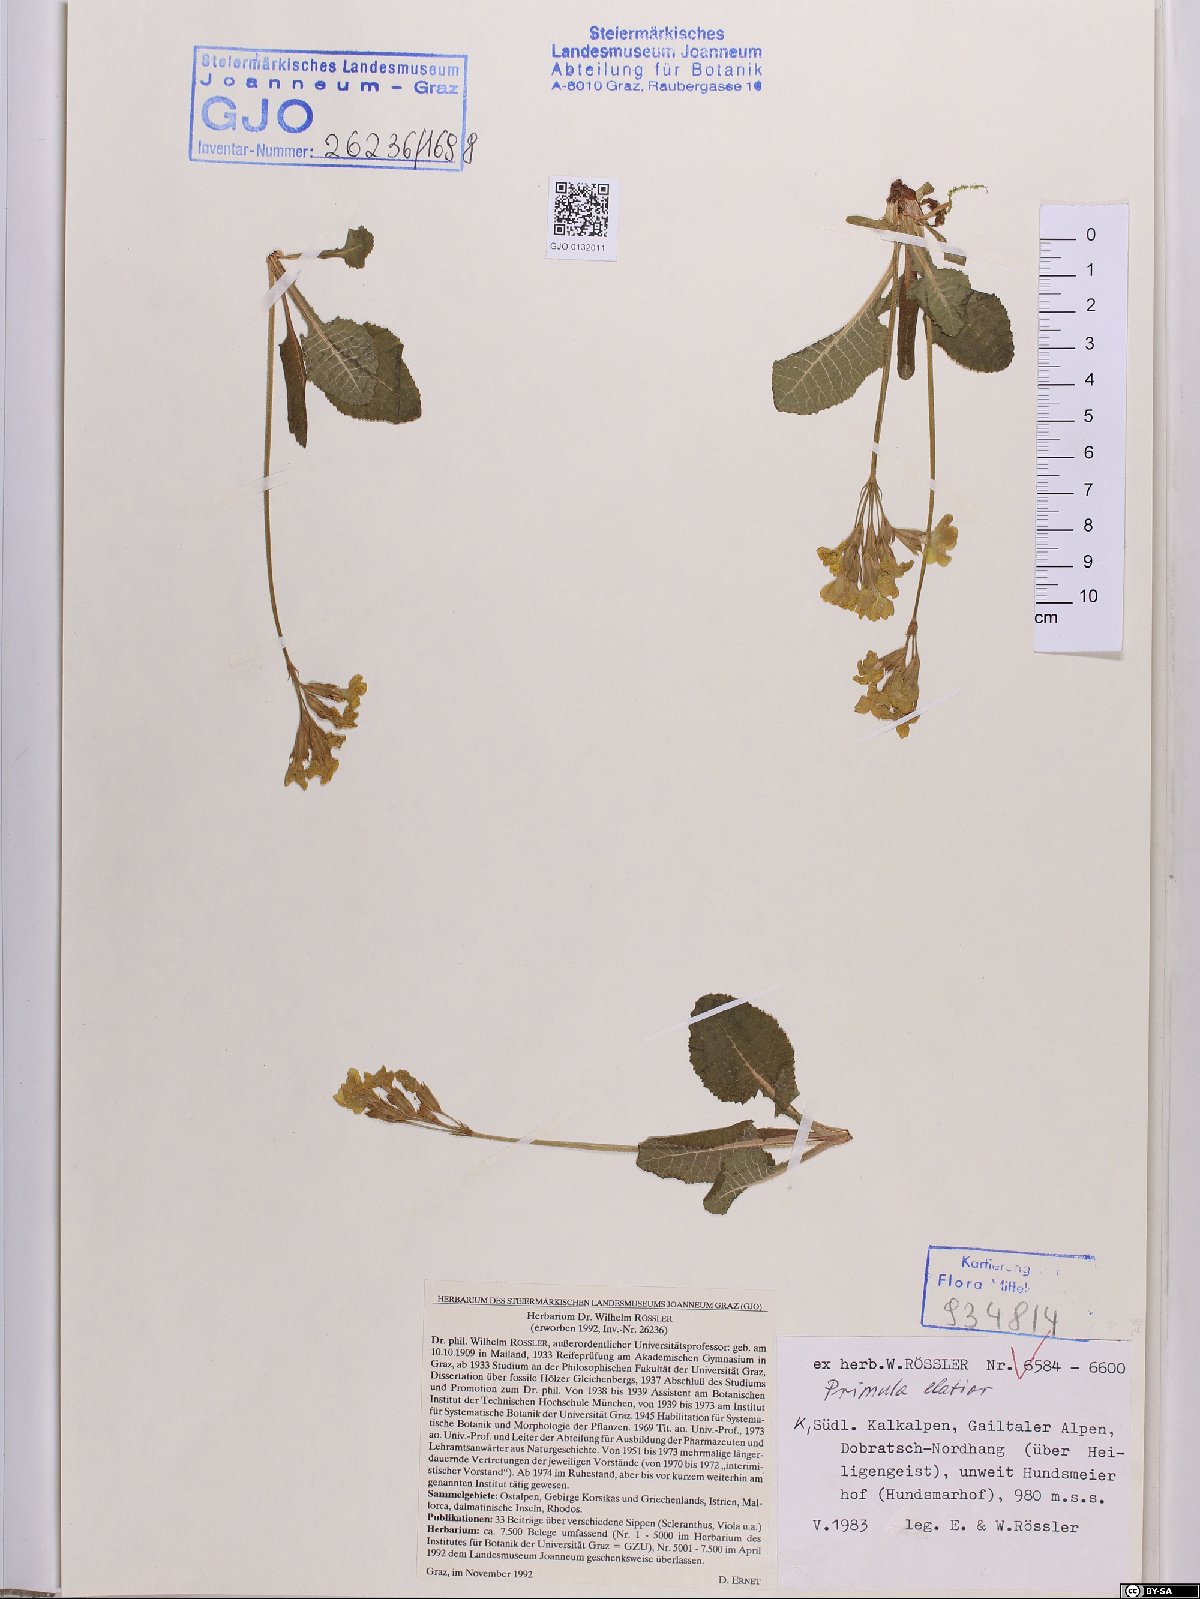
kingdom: Plantae
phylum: Tracheophyta
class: Magnoliopsida
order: Ericales
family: Primulaceae
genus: Primula
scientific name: Primula elatior
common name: Oxlip
